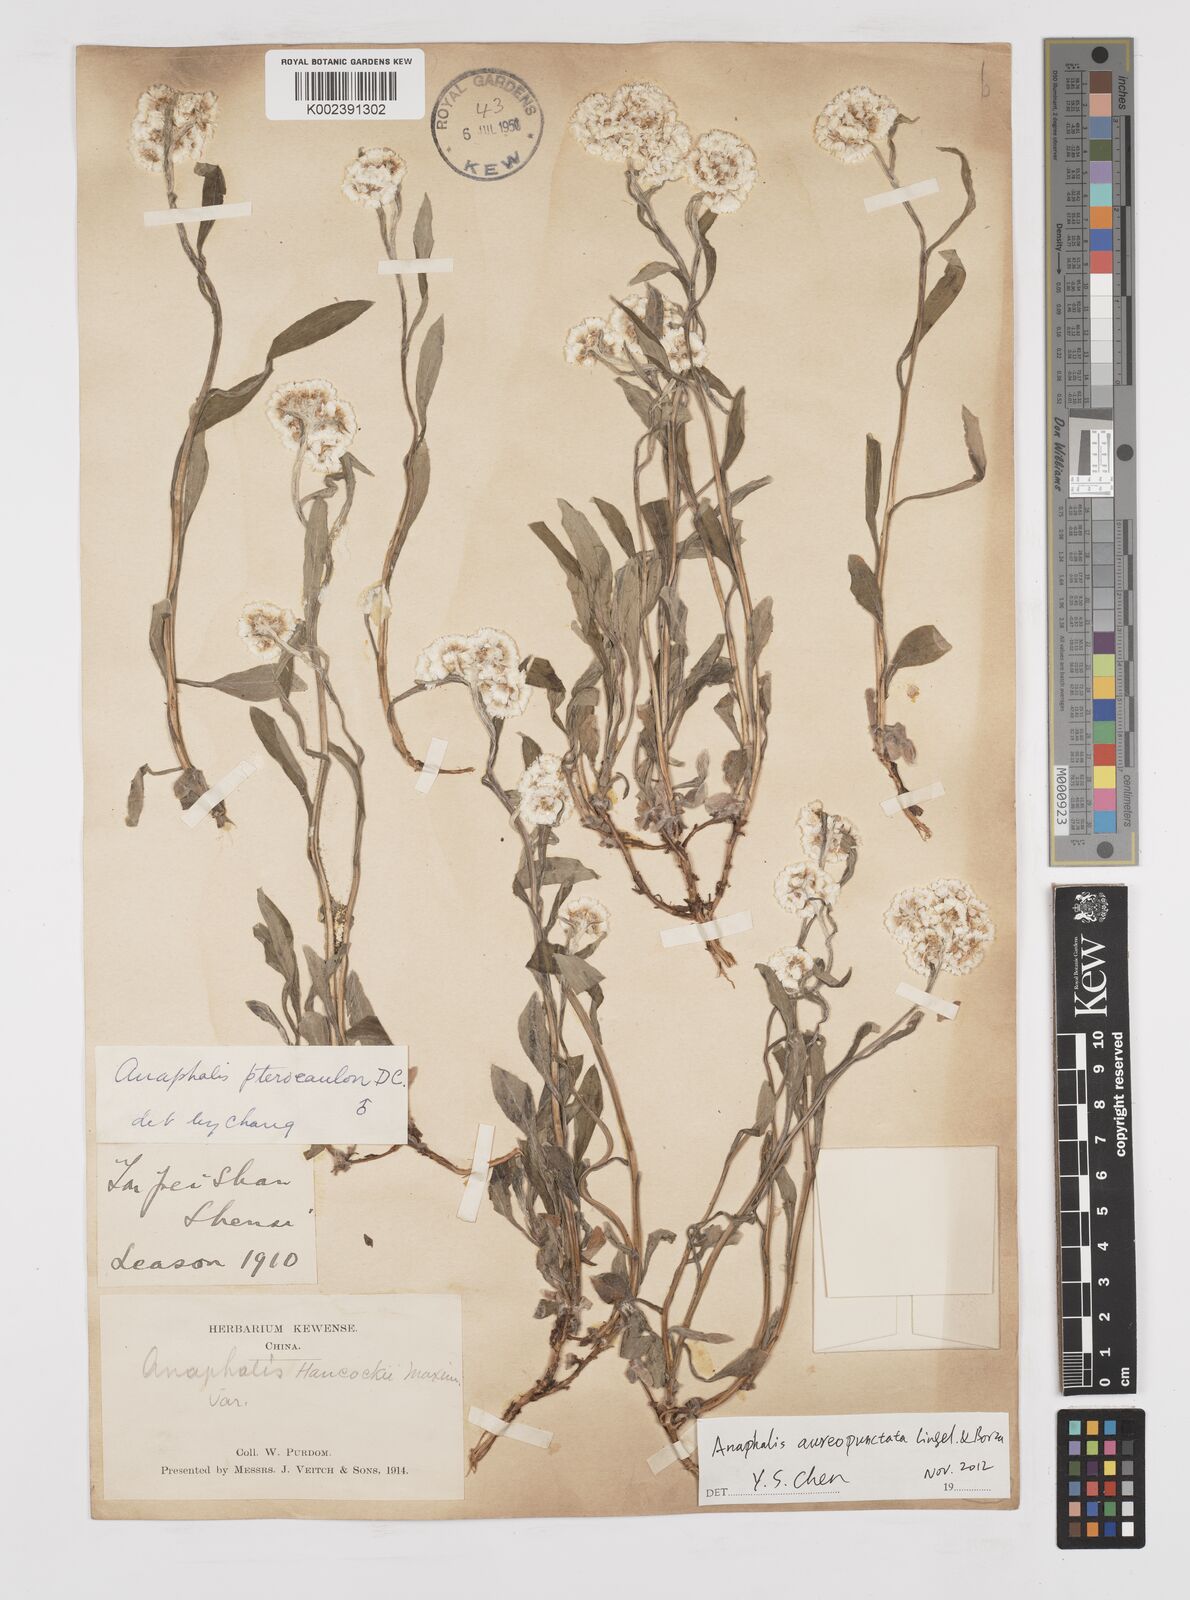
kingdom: Plantae
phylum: Tracheophyta
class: Magnoliopsida
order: Asterales
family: Asteraceae
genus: Anaphalis
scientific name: Anaphalis sinica
